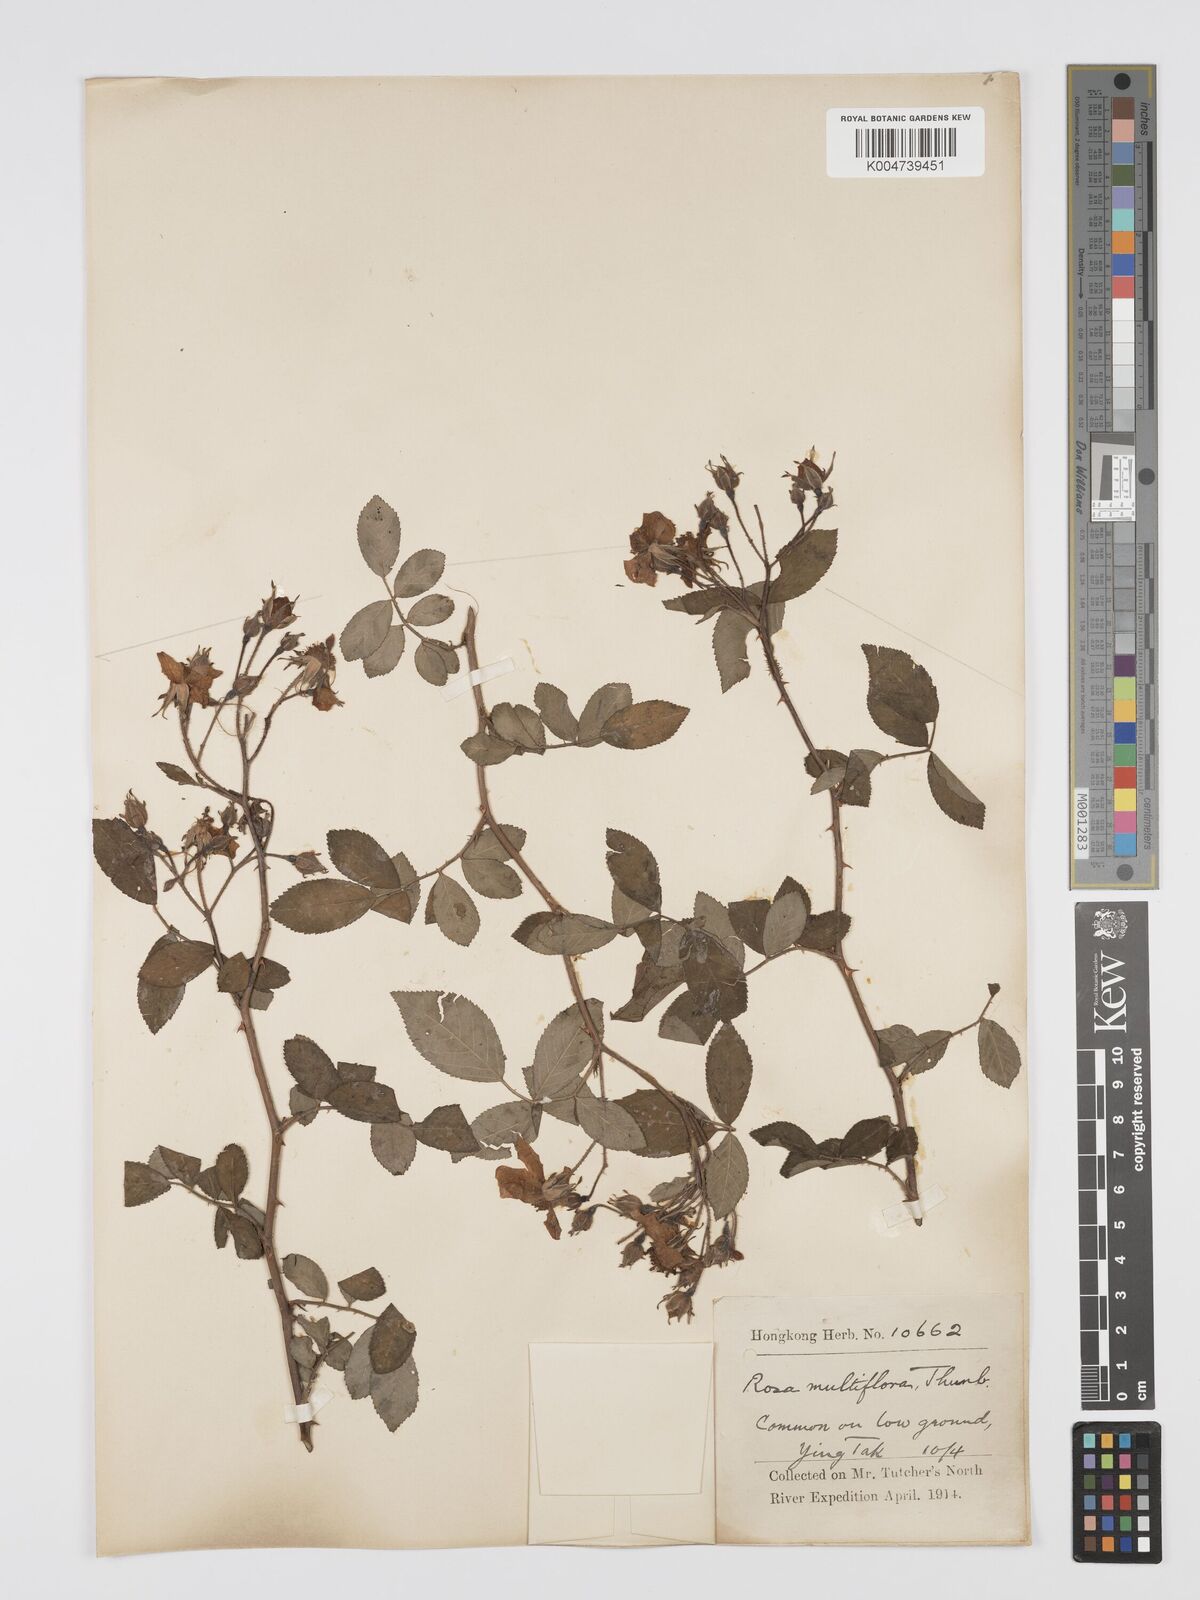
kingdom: Plantae
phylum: Tracheophyta
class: Magnoliopsida
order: Rosales
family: Rosaceae
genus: Rosa
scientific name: Rosa
